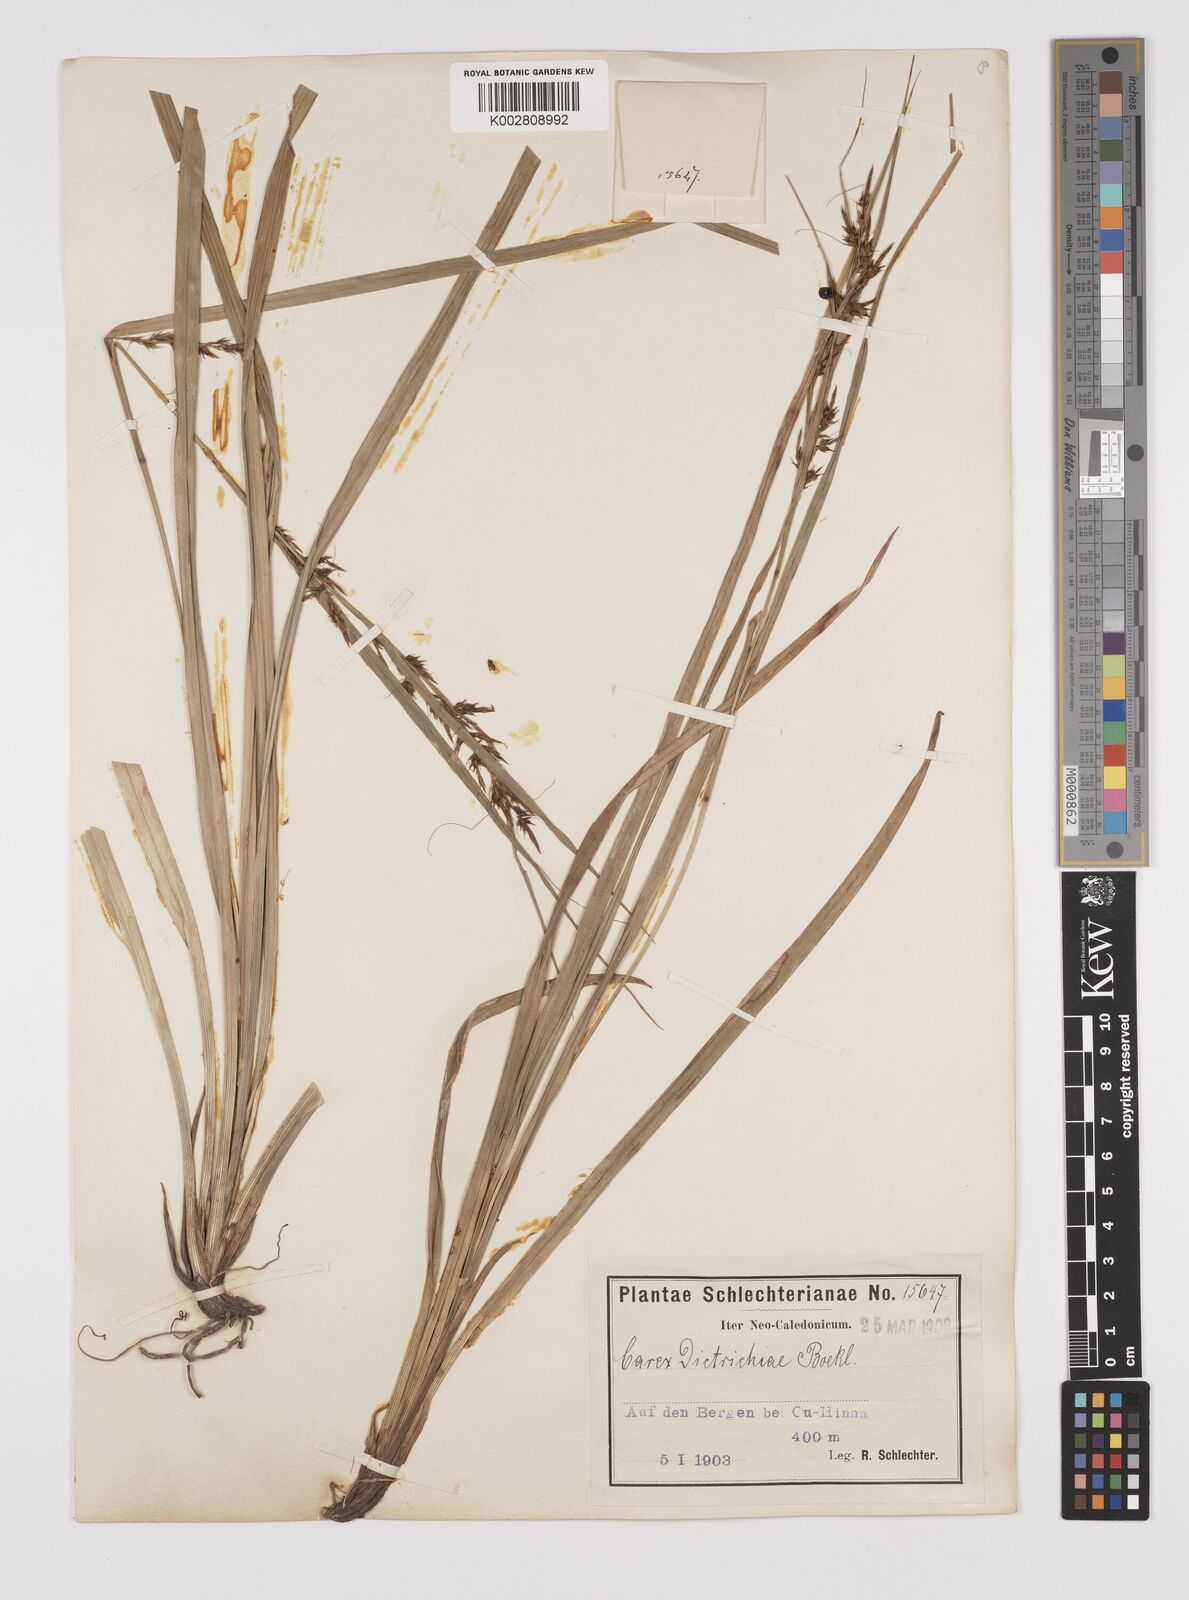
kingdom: Plantae
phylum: Tracheophyta
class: Liliopsida
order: Poales
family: Cyperaceae
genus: Carex
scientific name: Carex indica
